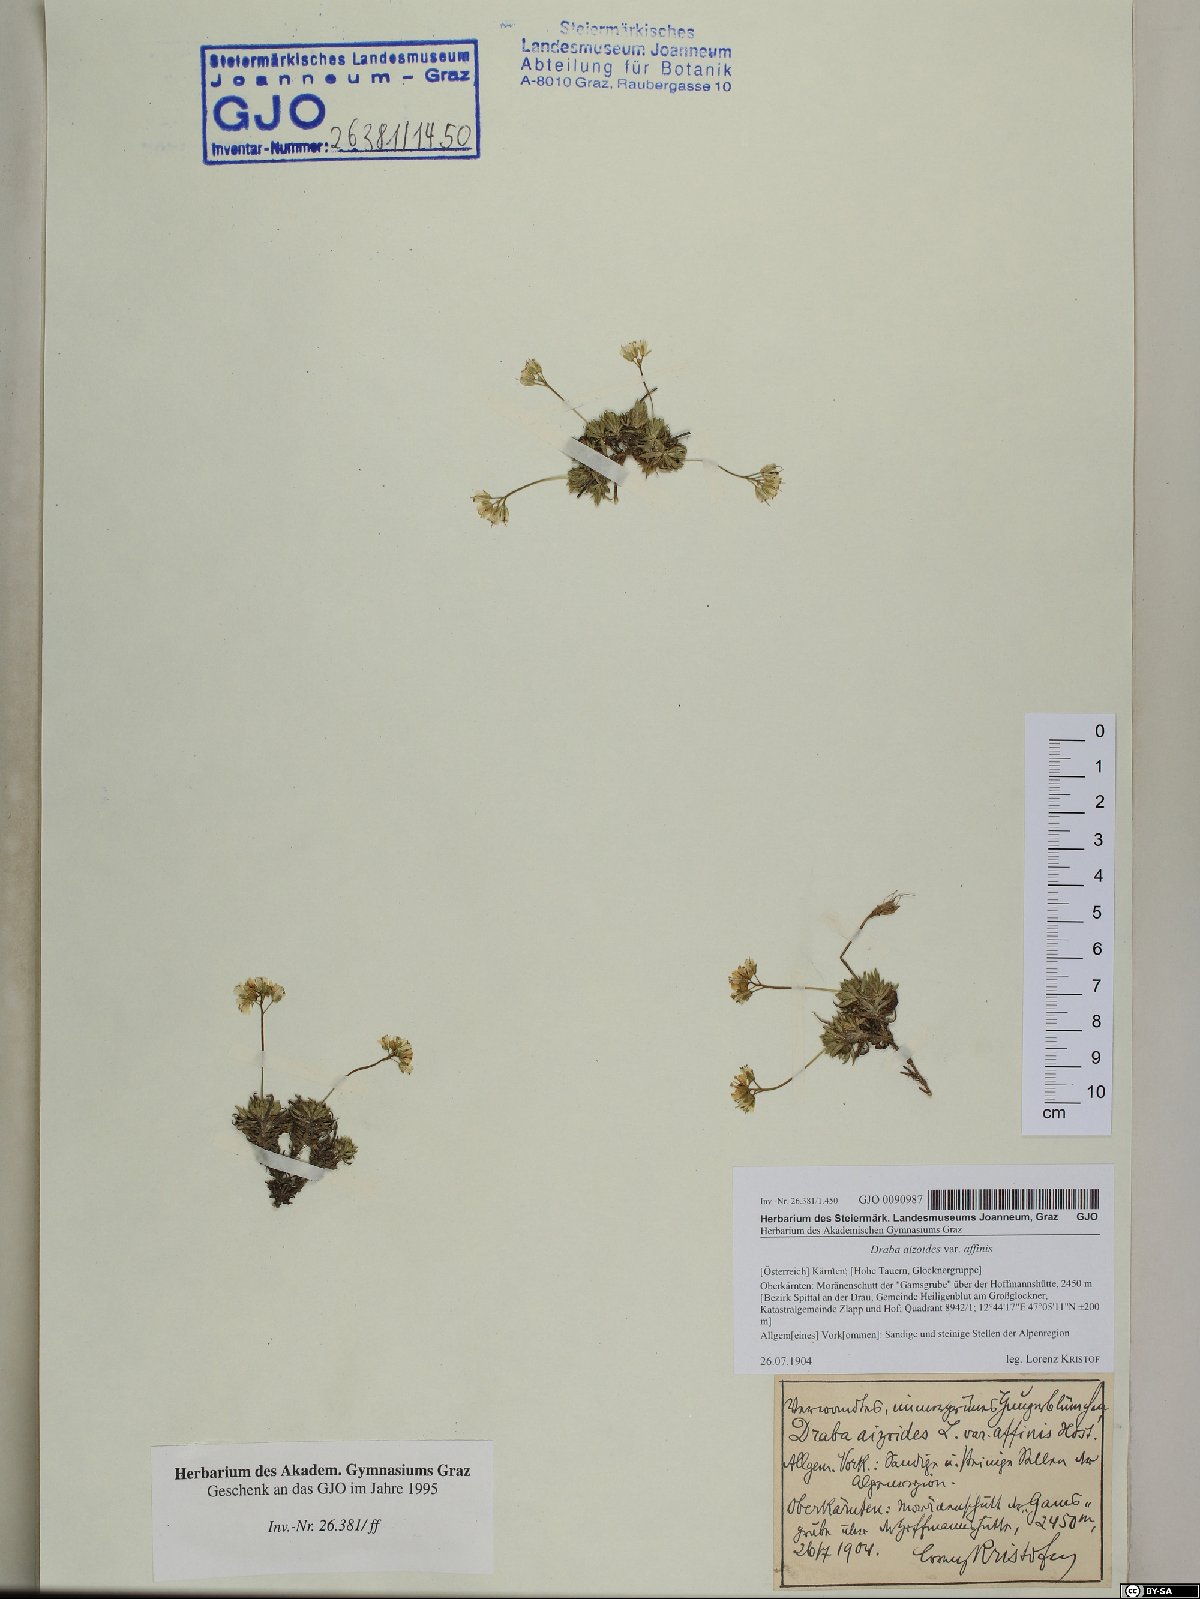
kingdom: Plantae
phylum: Tracheophyta
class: Magnoliopsida
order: Brassicales
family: Brassicaceae
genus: Draba
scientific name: Draba aizoides
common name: Yellow whitlowgrass
